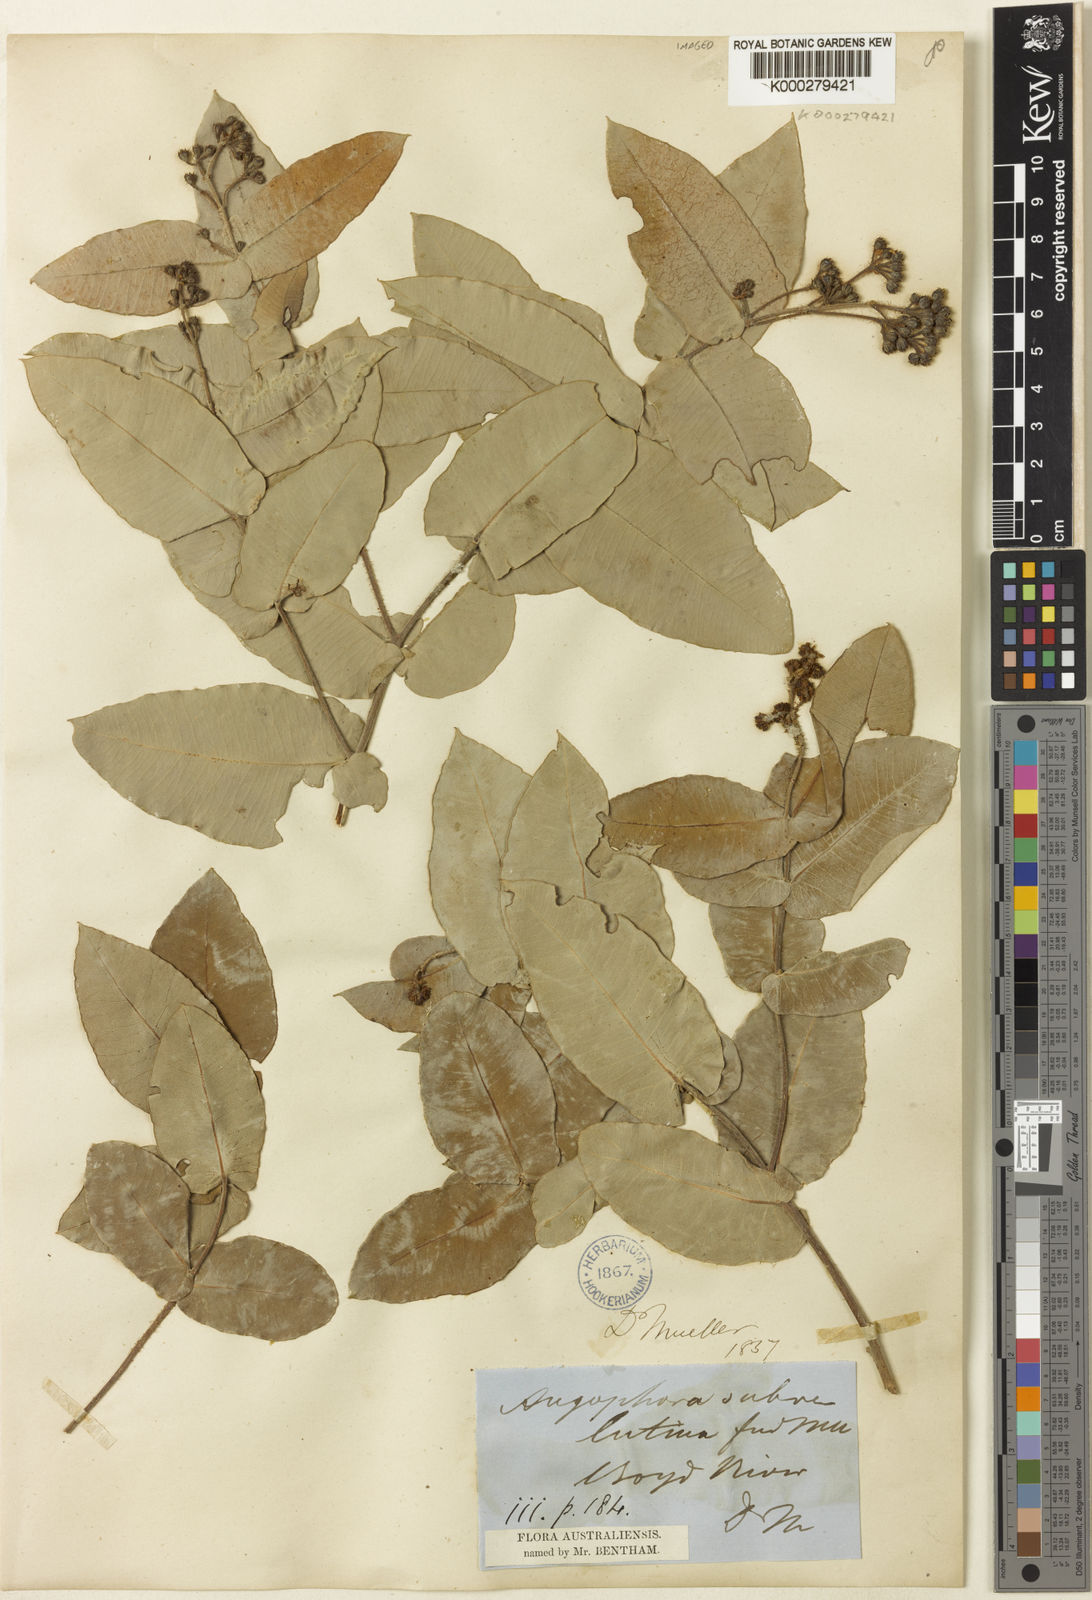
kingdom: Plantae
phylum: Tracheophyta
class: Magnoliopsida
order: Myrtales
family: Myrtaceae
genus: Angophora
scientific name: Angophora subvelutina
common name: Broad-leaved apple
